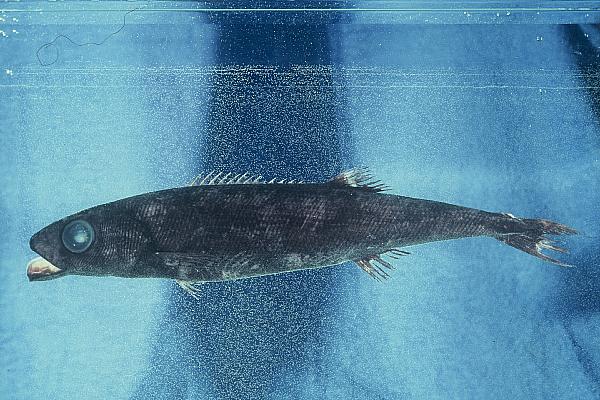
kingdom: Animalia
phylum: Chordata
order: Perciformes
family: Tetragonuridae
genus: Tetragonurus
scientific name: Tetragonurus atlanticus
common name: Bigeye squaretail
